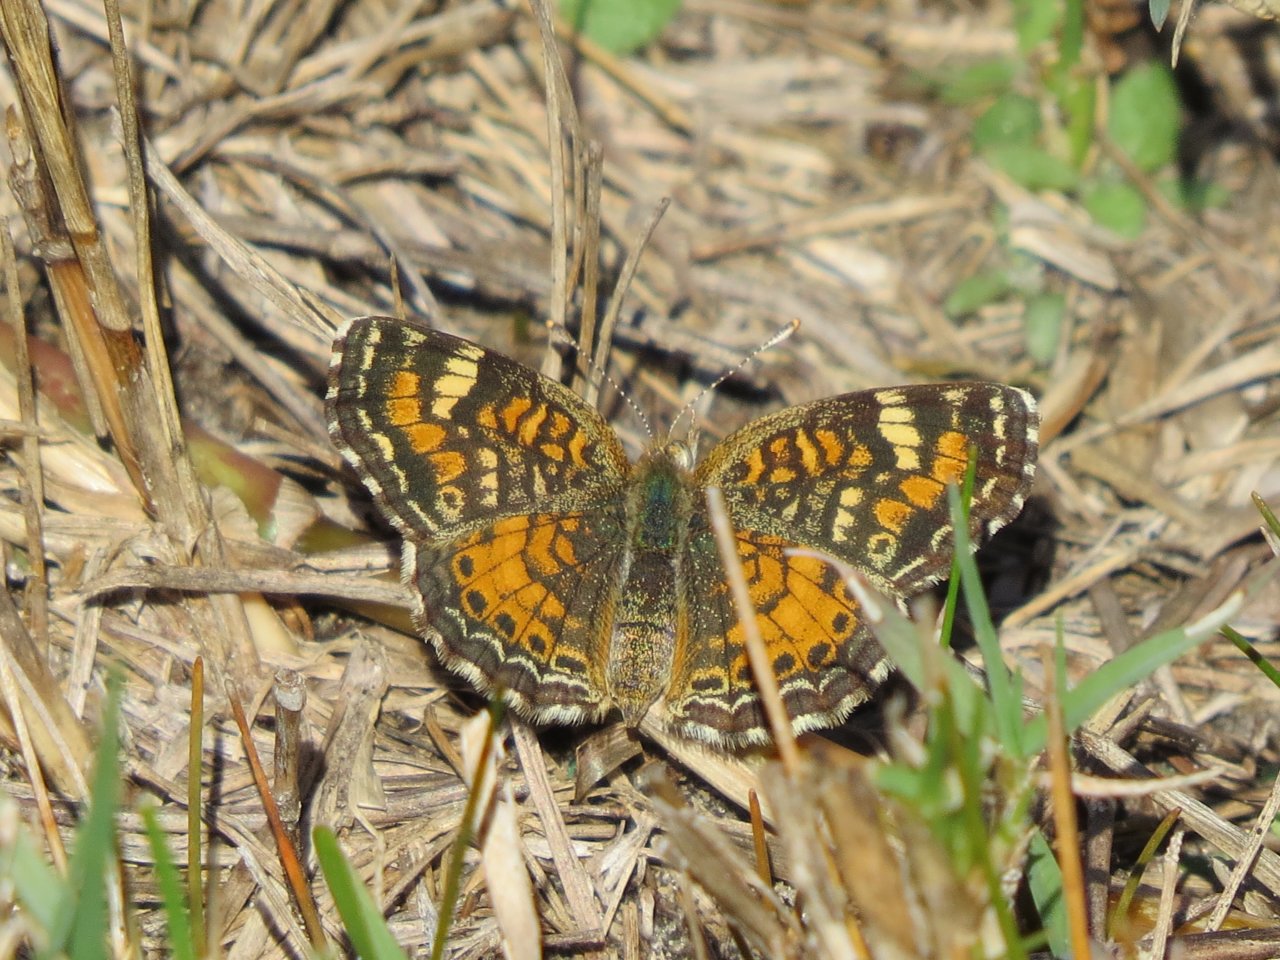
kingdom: Animalia
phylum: Arthropoda
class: Insecta
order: Lepidoptera
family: Nymphalidae
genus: Phyciodes
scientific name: Phyciodes phaon
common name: Phaon Crescent
